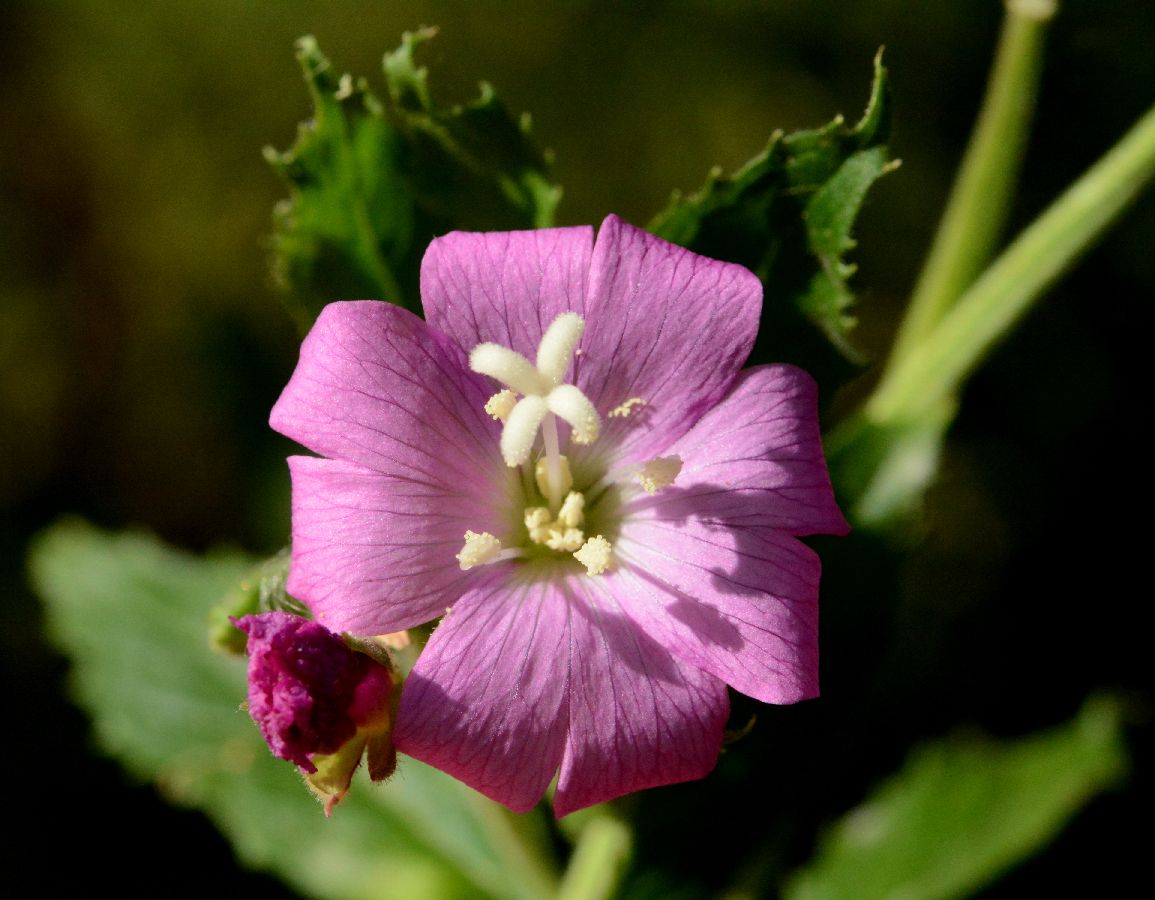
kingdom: Plantae
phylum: Tracheophyta
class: Magnoliopsida
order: Myrtales
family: Onagraceae
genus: Epilobium
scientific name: Epilobium hirsutum
